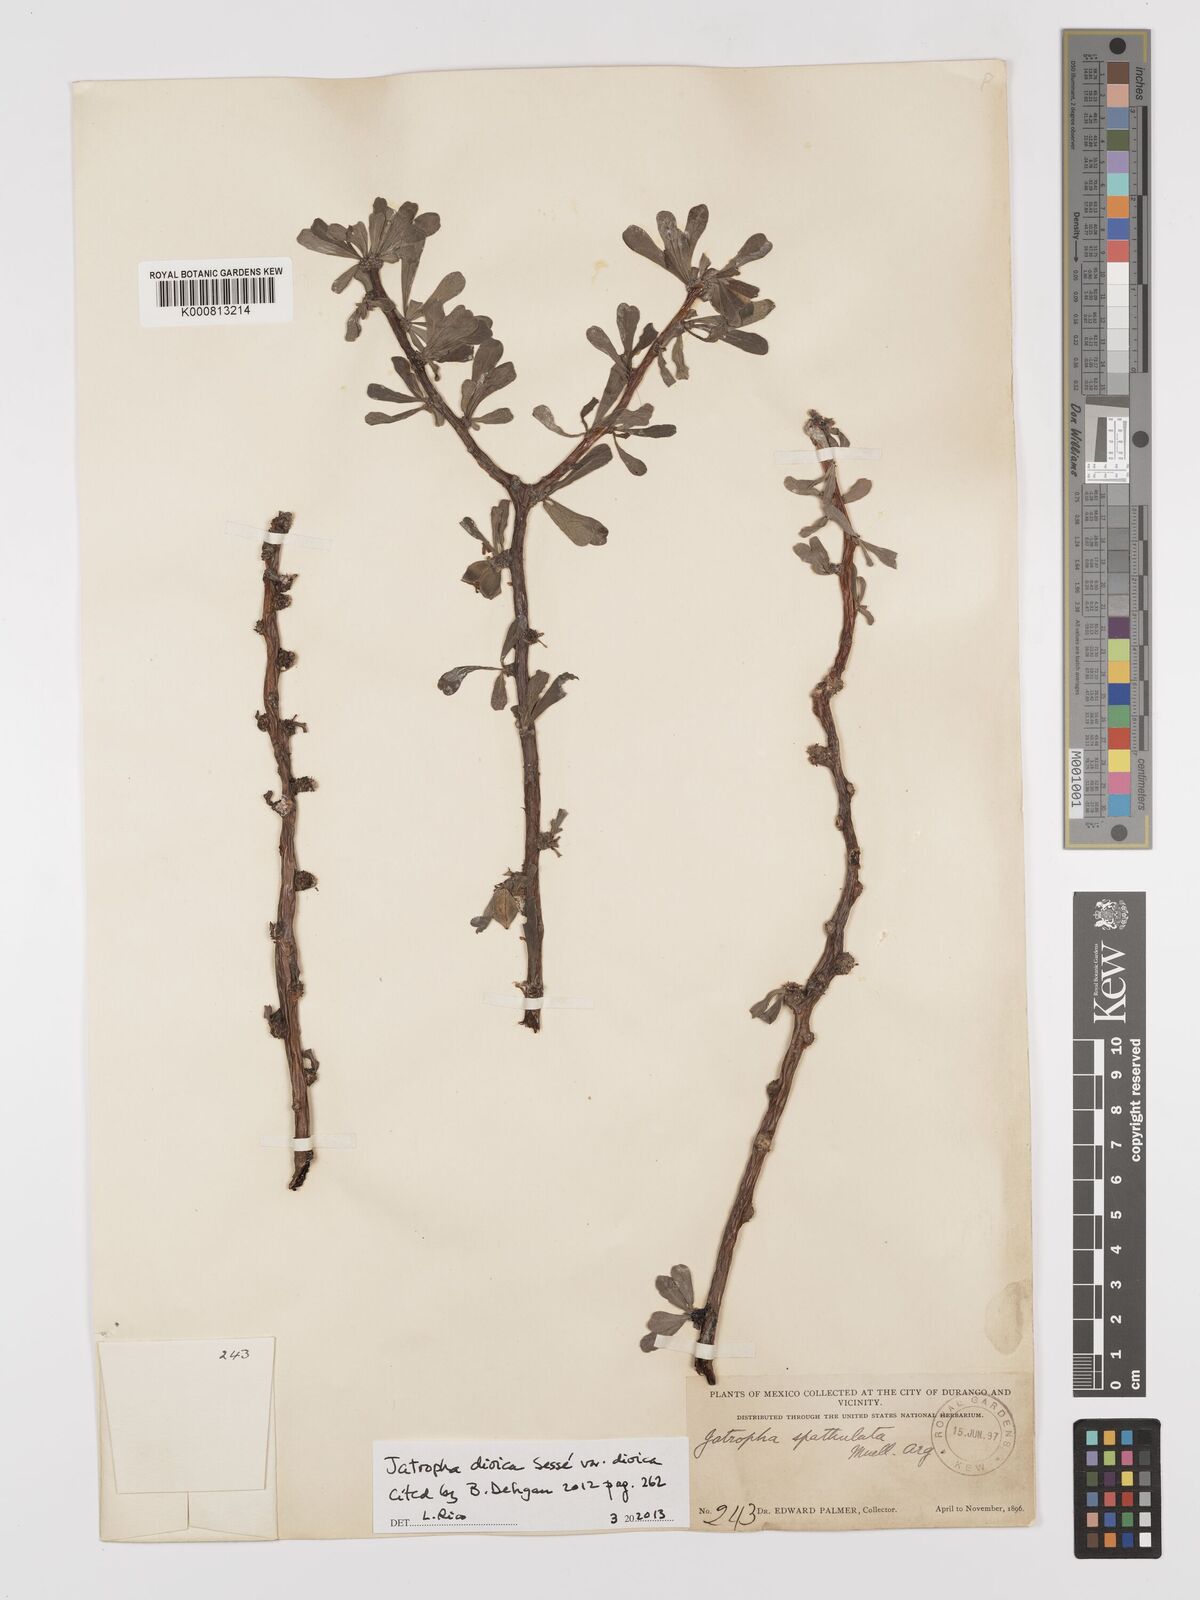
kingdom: Plantae
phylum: Tracheophyta
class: Magnoliopsida
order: Malpighiales
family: Euphorbiaceae
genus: Jatropha
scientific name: Jatropha
